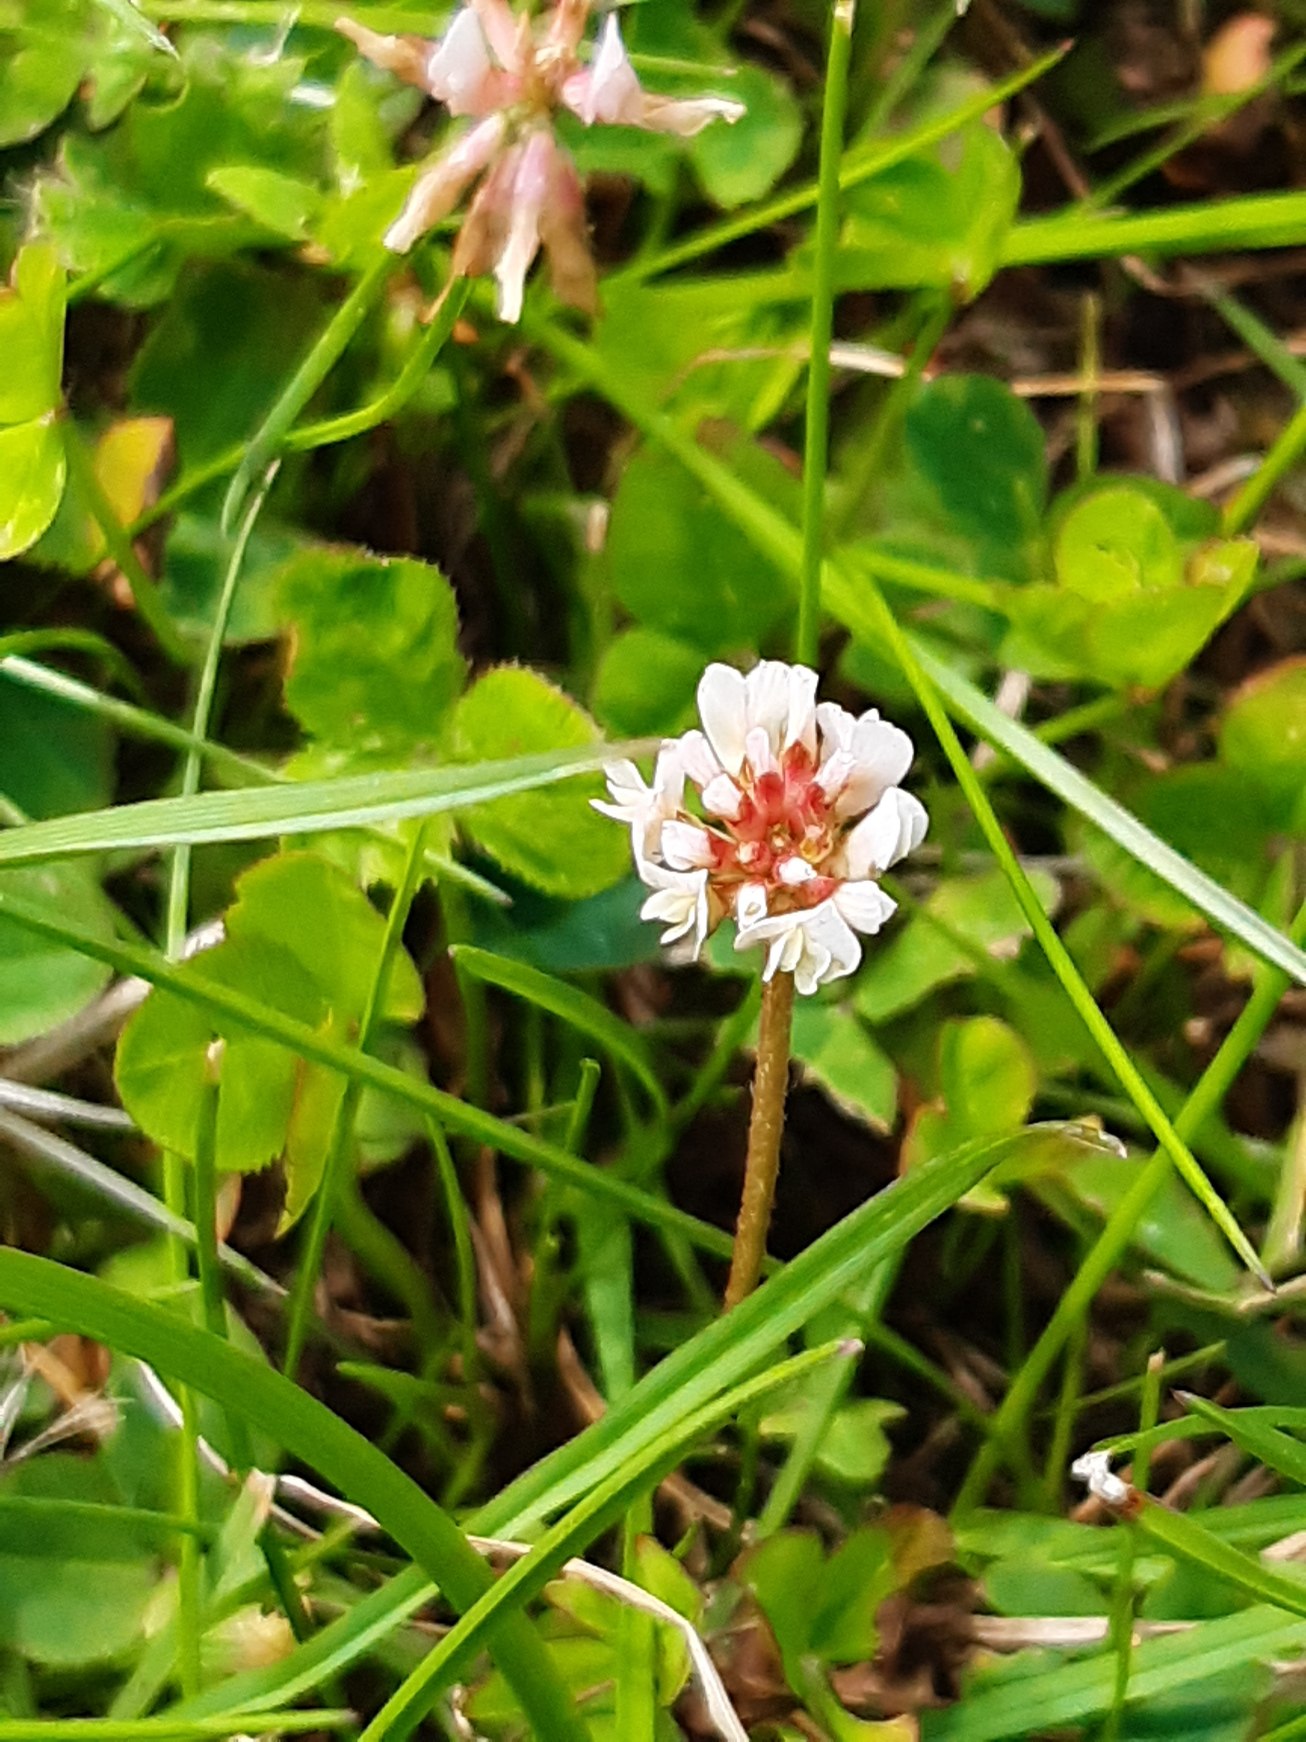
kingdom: Plantae
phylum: Tracheophyta
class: Magnoliopsida
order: Fabales
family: Fabaceae
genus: Trifolium
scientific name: Trifolium repens
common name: Hvid-kløver
